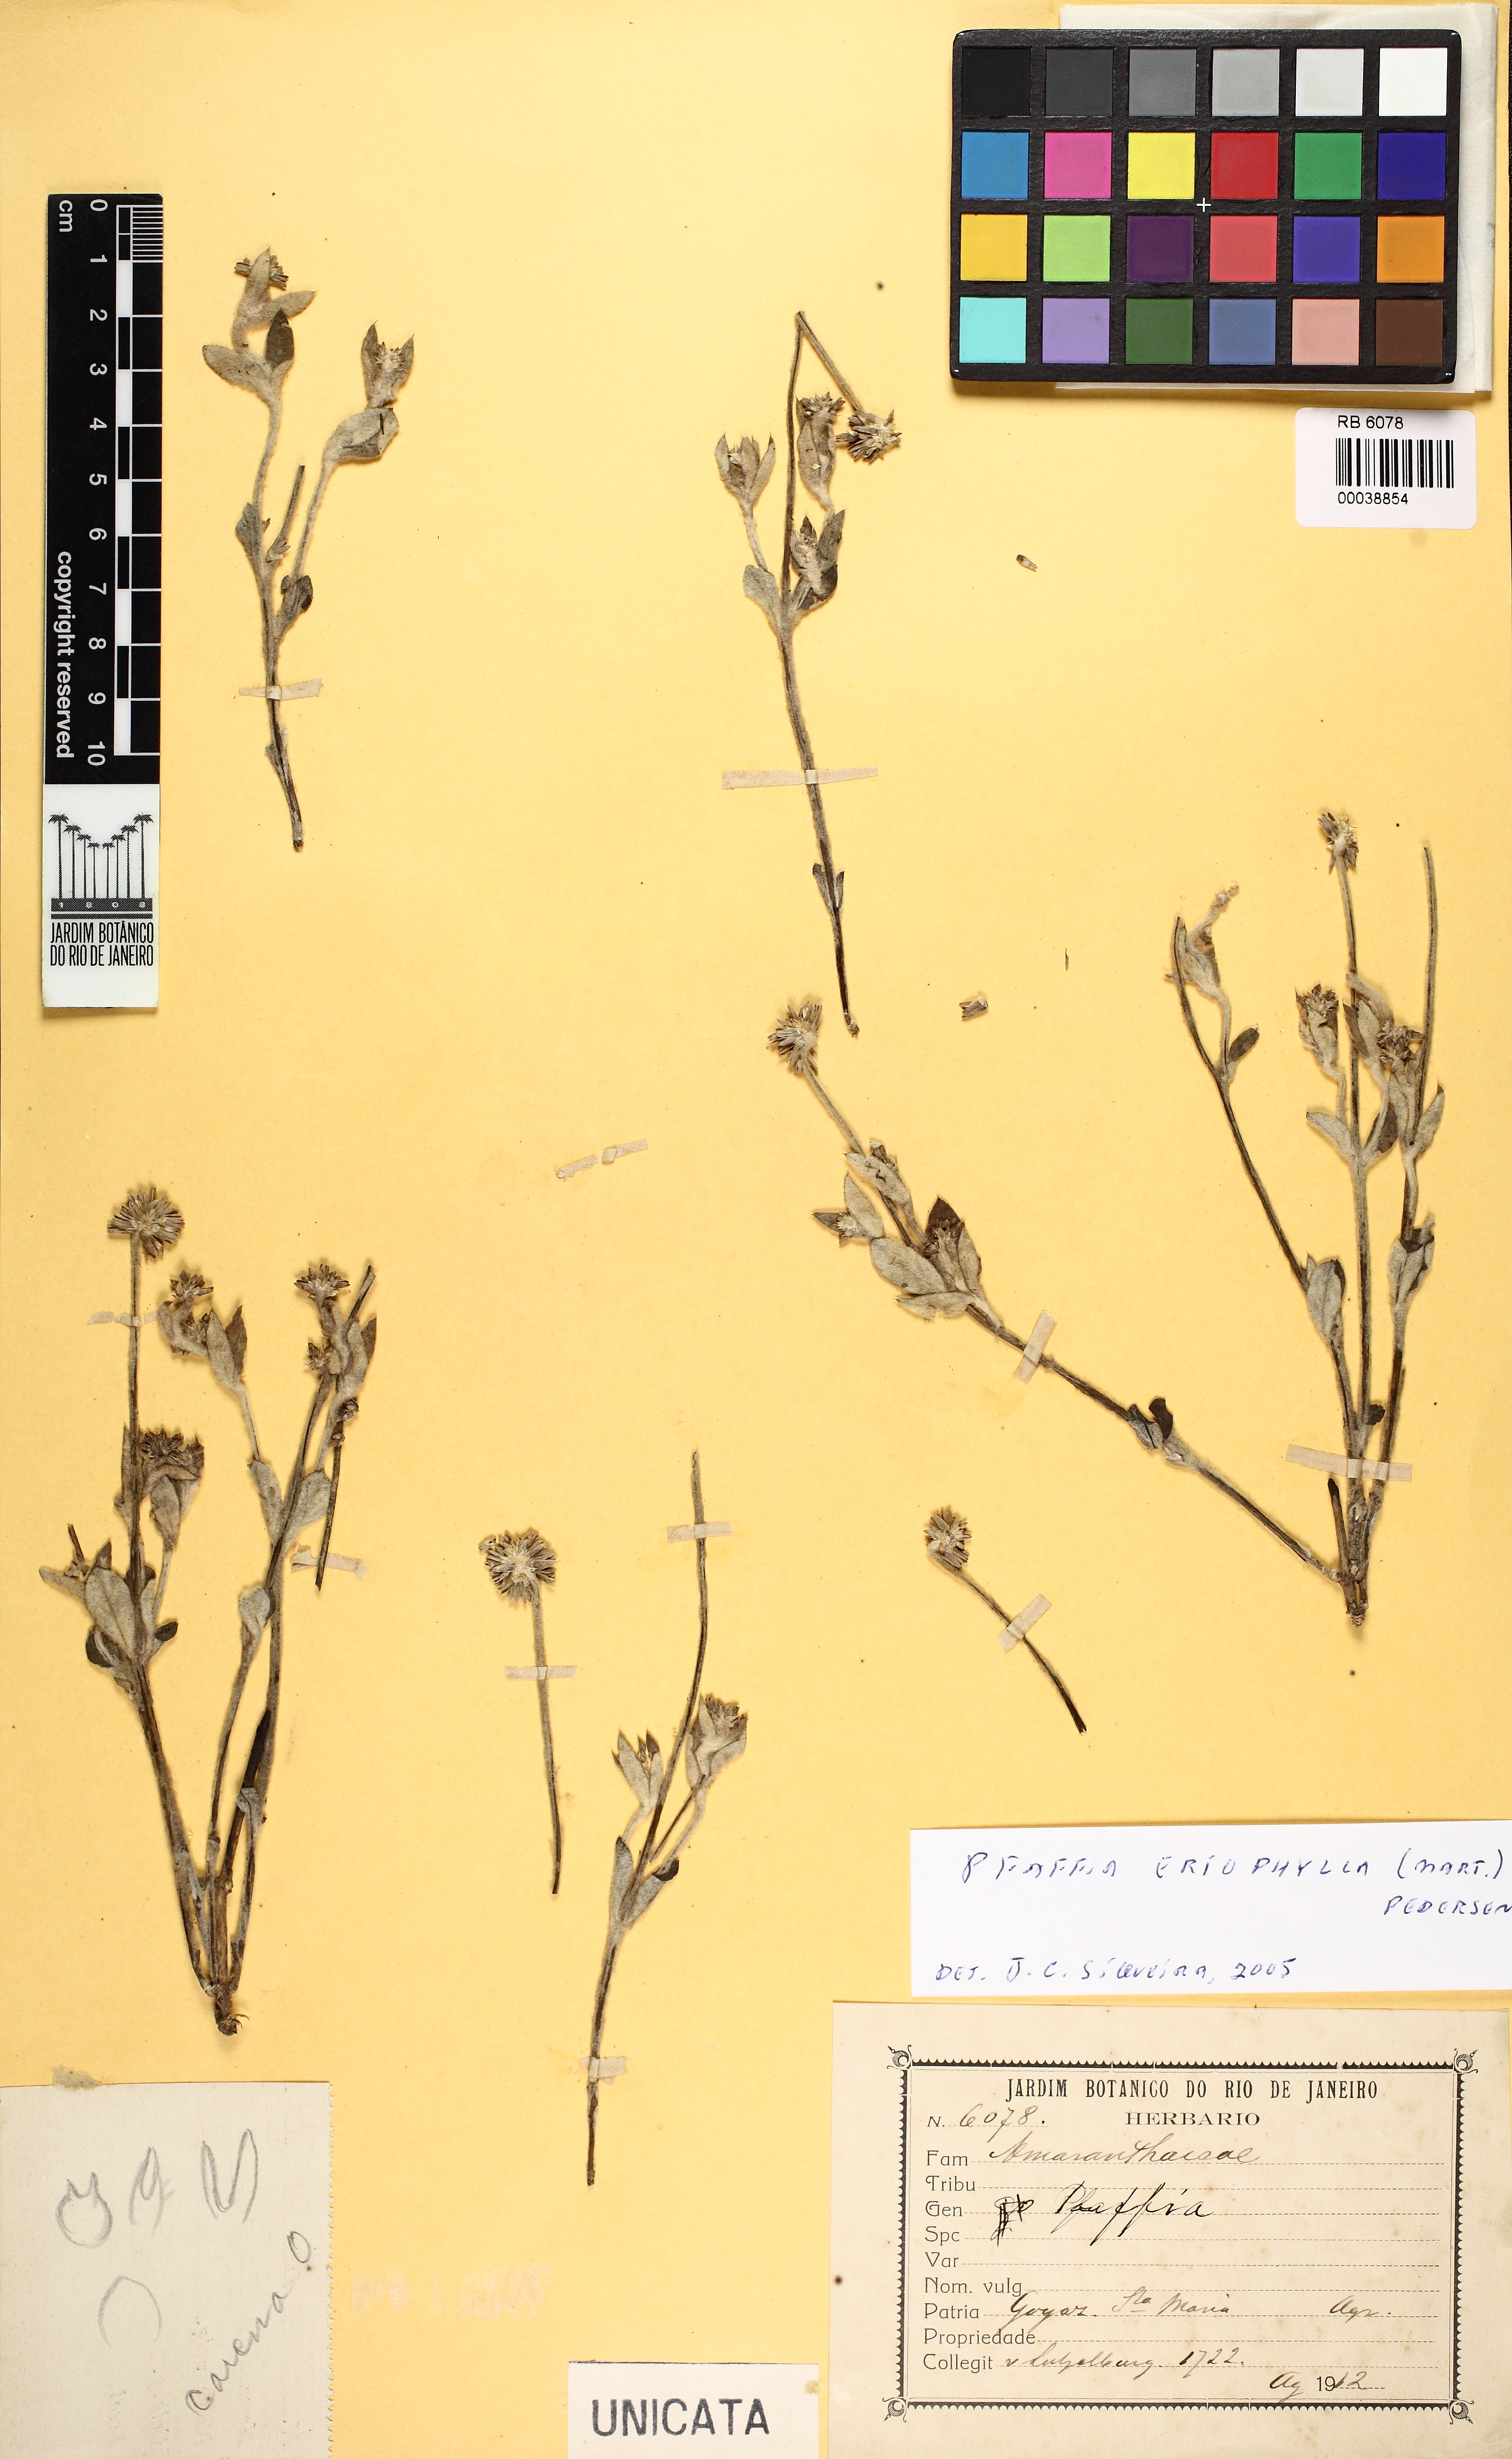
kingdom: Plantae
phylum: Tracheophyta
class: Magnoliopsida
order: Caryophyllales
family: Amaranthaceae
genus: Gomphrena
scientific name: Gomphrena eriophylla
